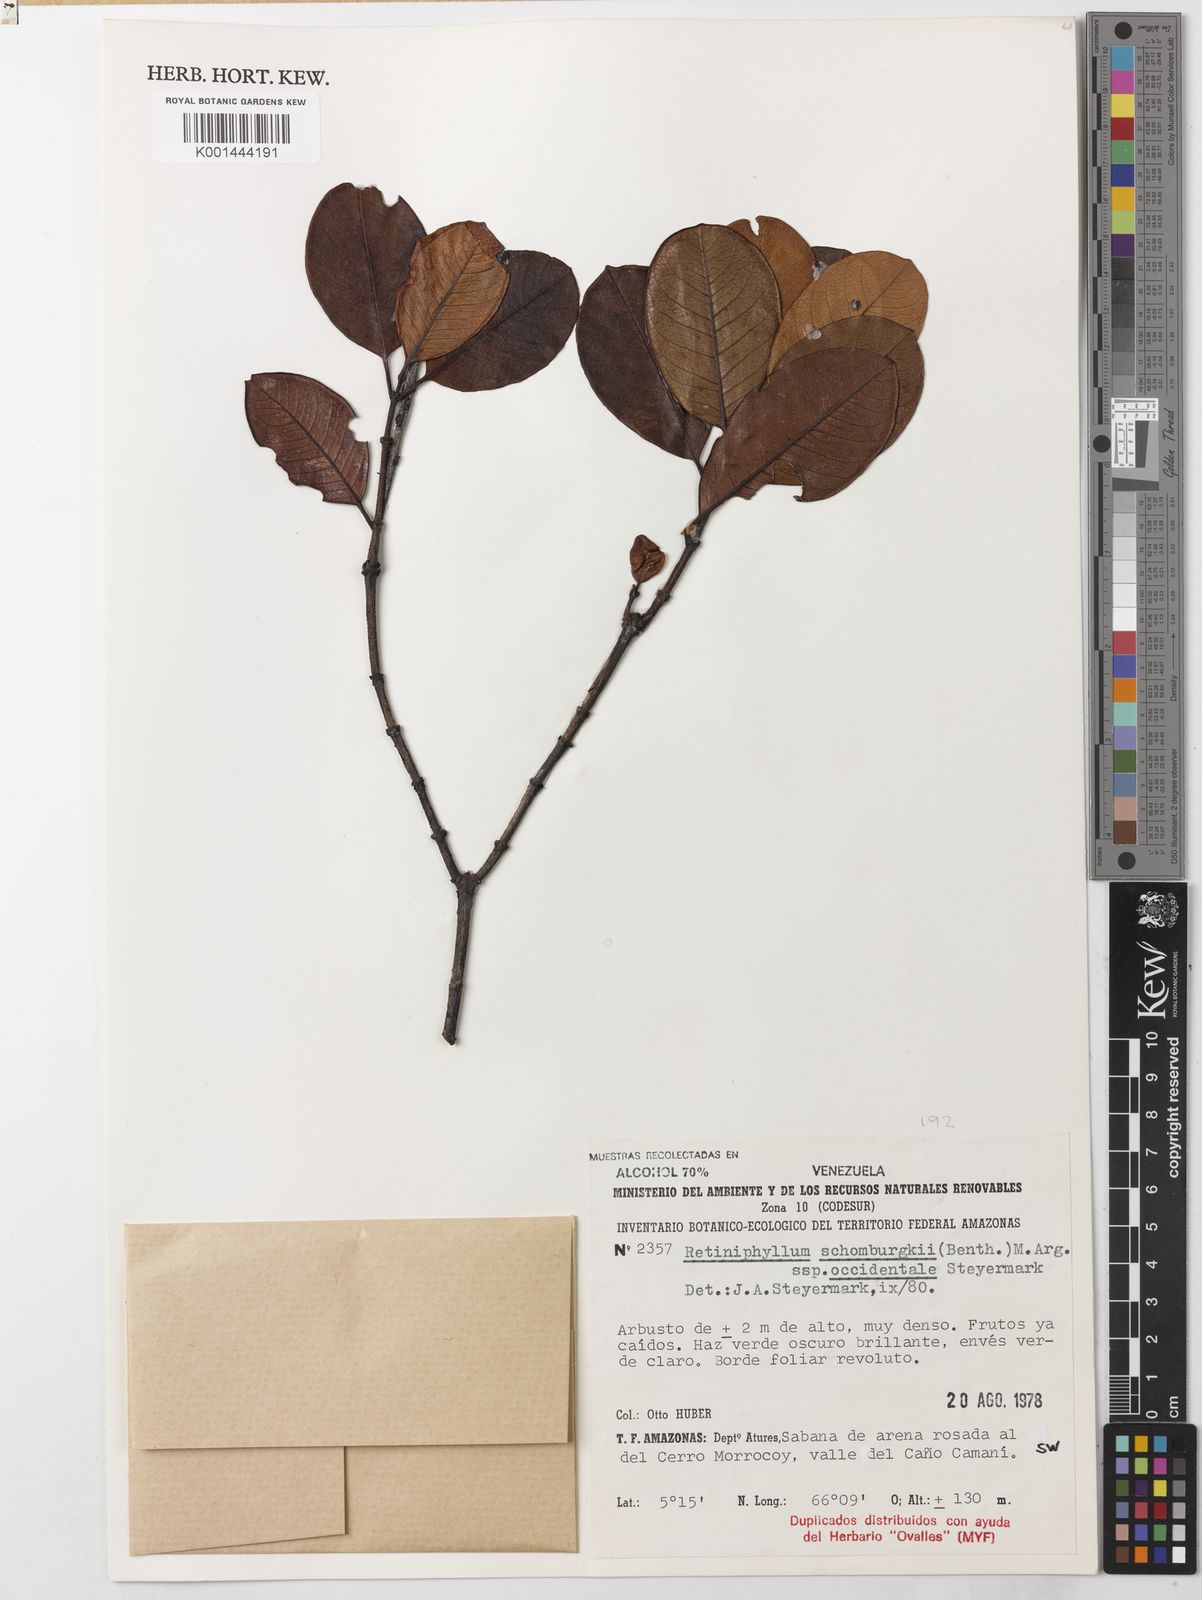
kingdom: Plantae
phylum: Tracheophyta
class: Magnoliopsida
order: Gentianales
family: Rubiaceae
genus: Retiniphyllum
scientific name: Retiniphyllum schomburgkii
